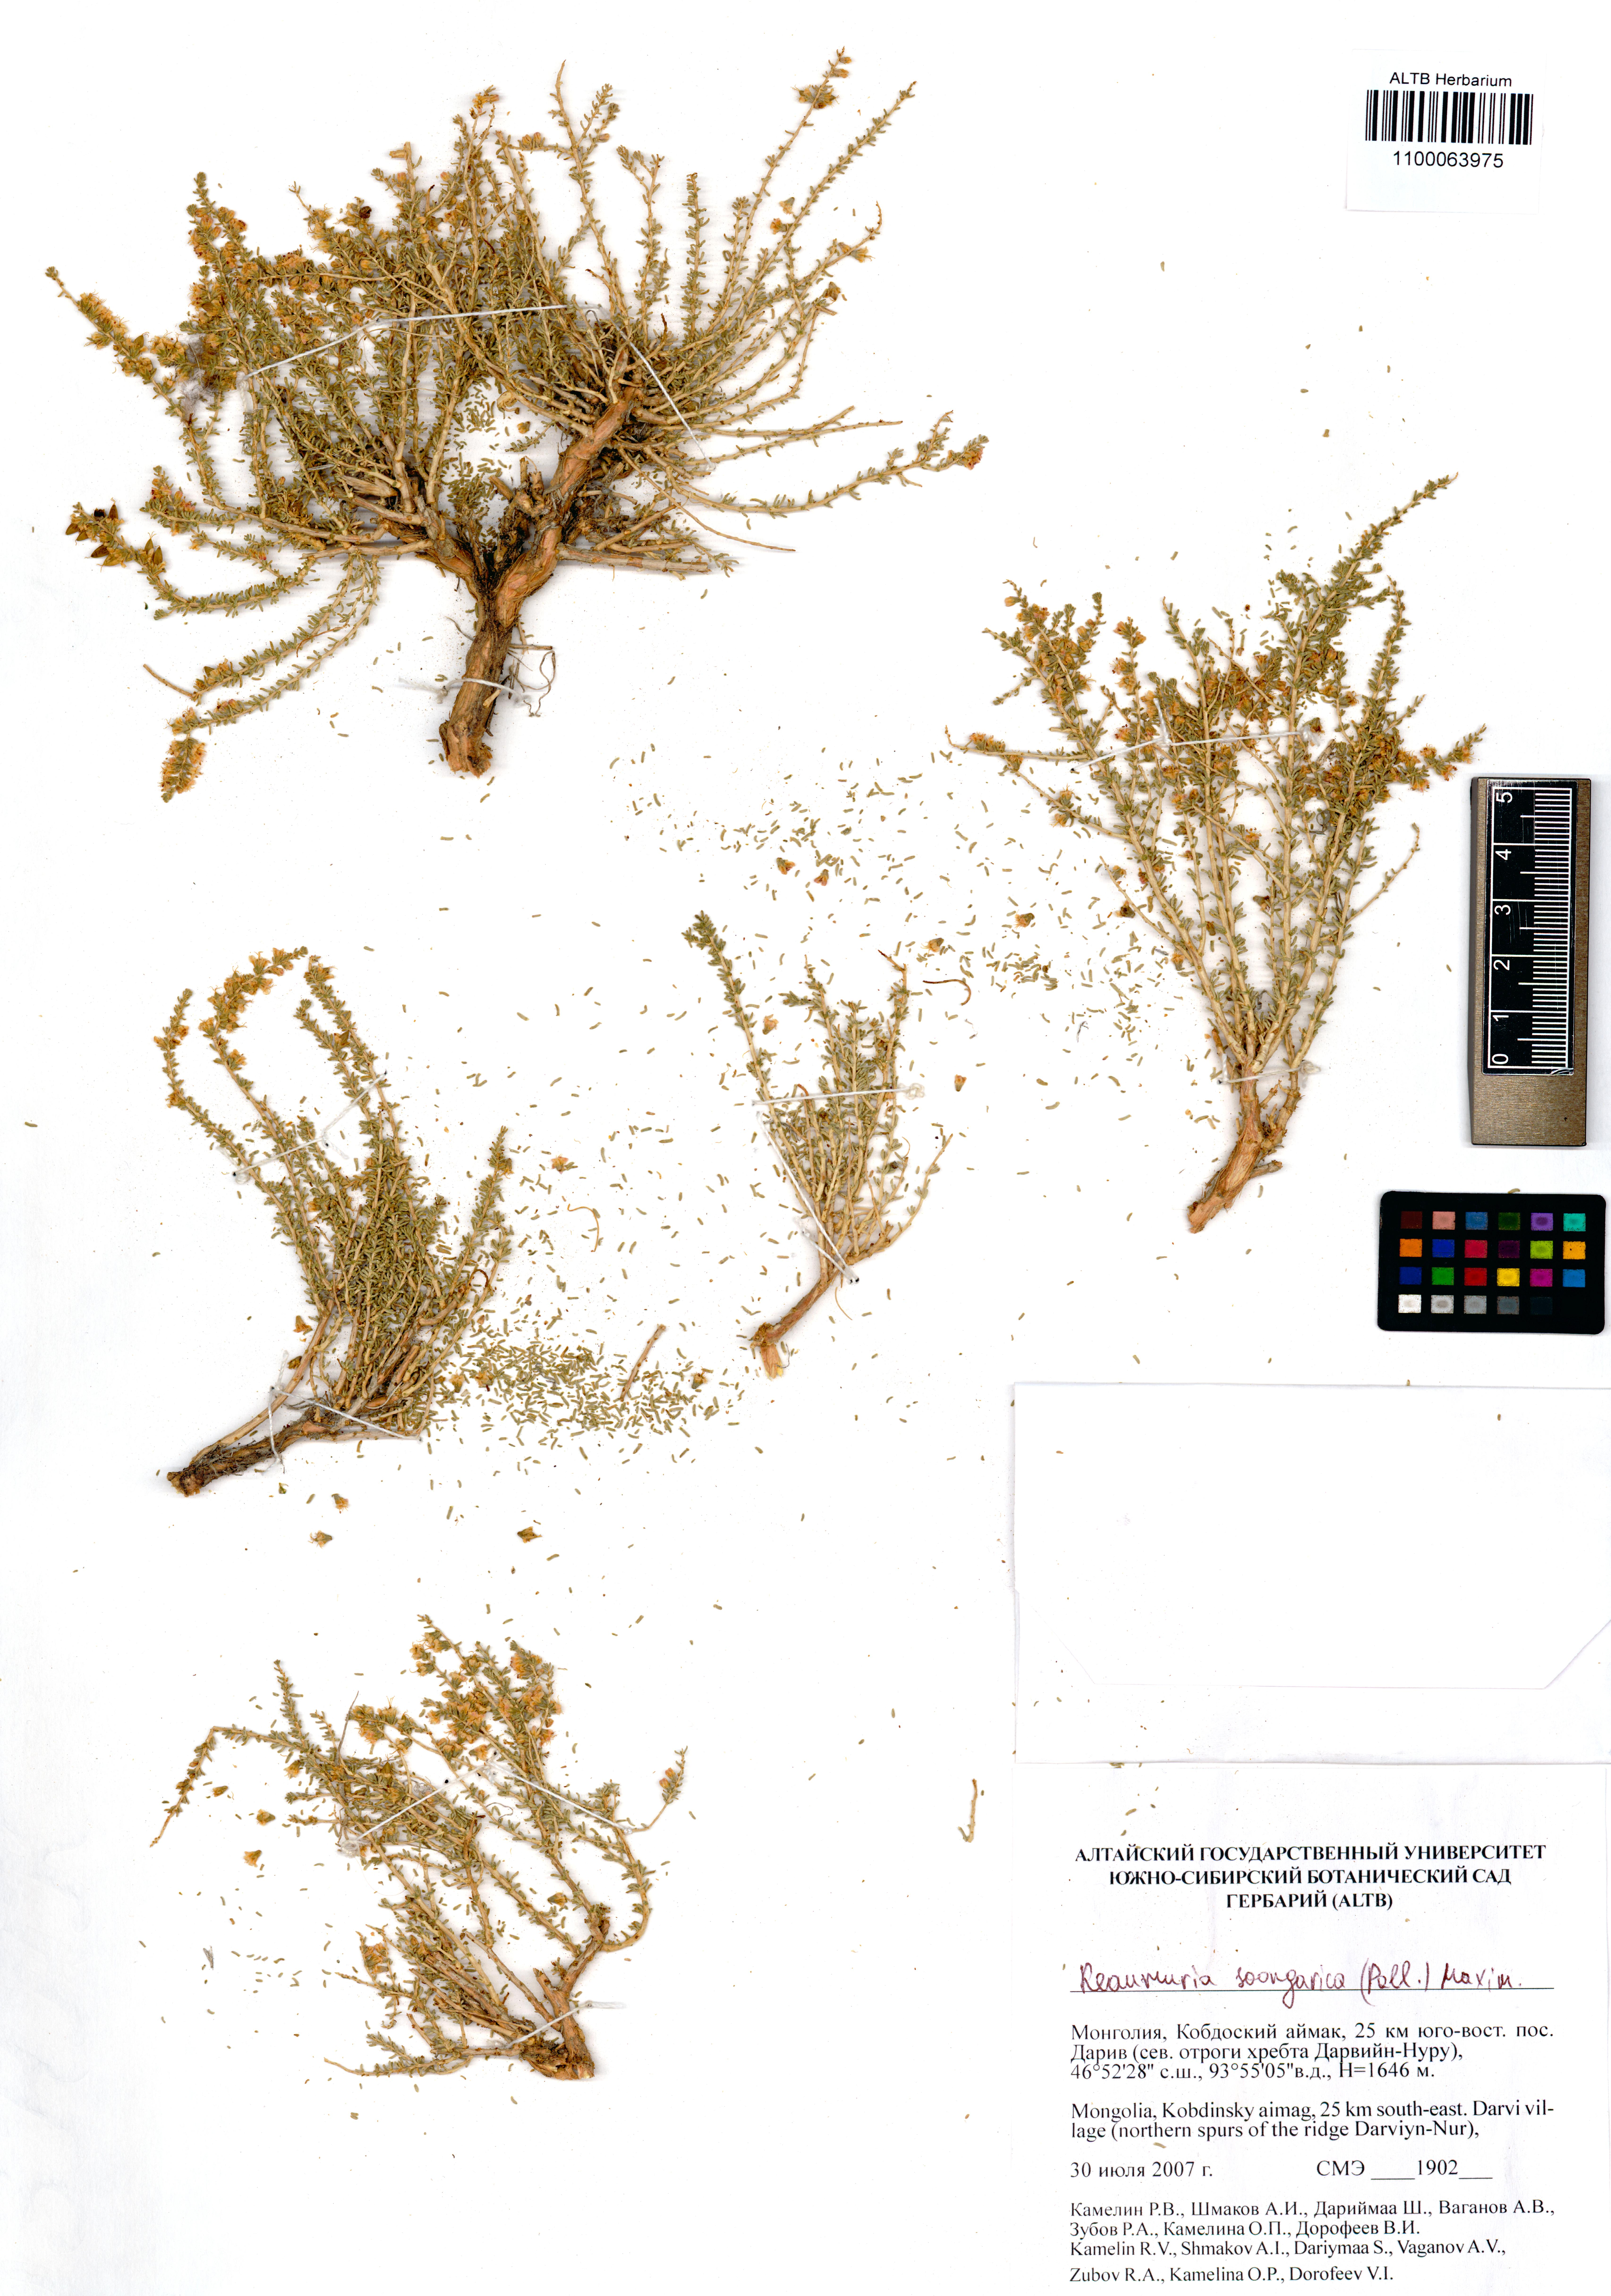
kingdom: Plantae
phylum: Tracheophyta
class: Magnoliopsida
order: Caryophyllales
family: Tamaricaceae
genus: Reaumuria
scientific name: Reaumuria songarica
